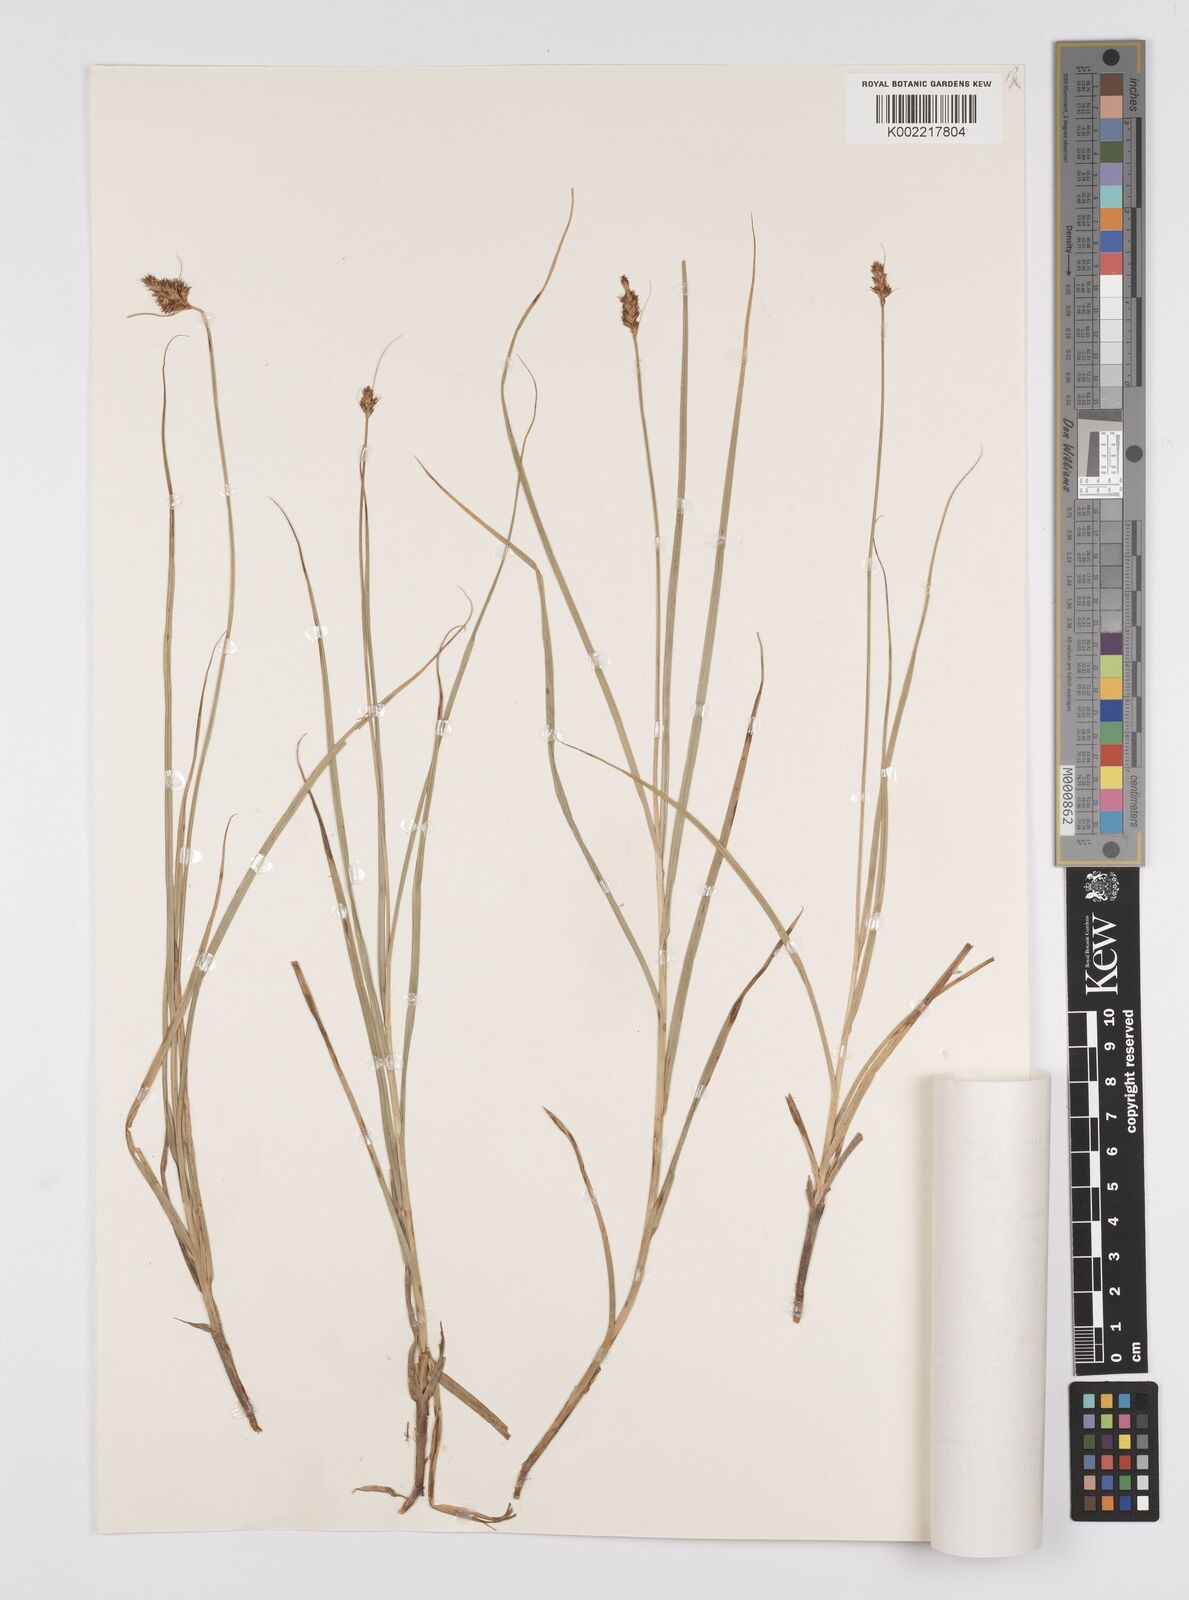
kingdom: Plantae
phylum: Tracheophyta
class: Liliopsida
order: Poales
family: Cyperaceae
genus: Carex
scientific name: Carex curaica
